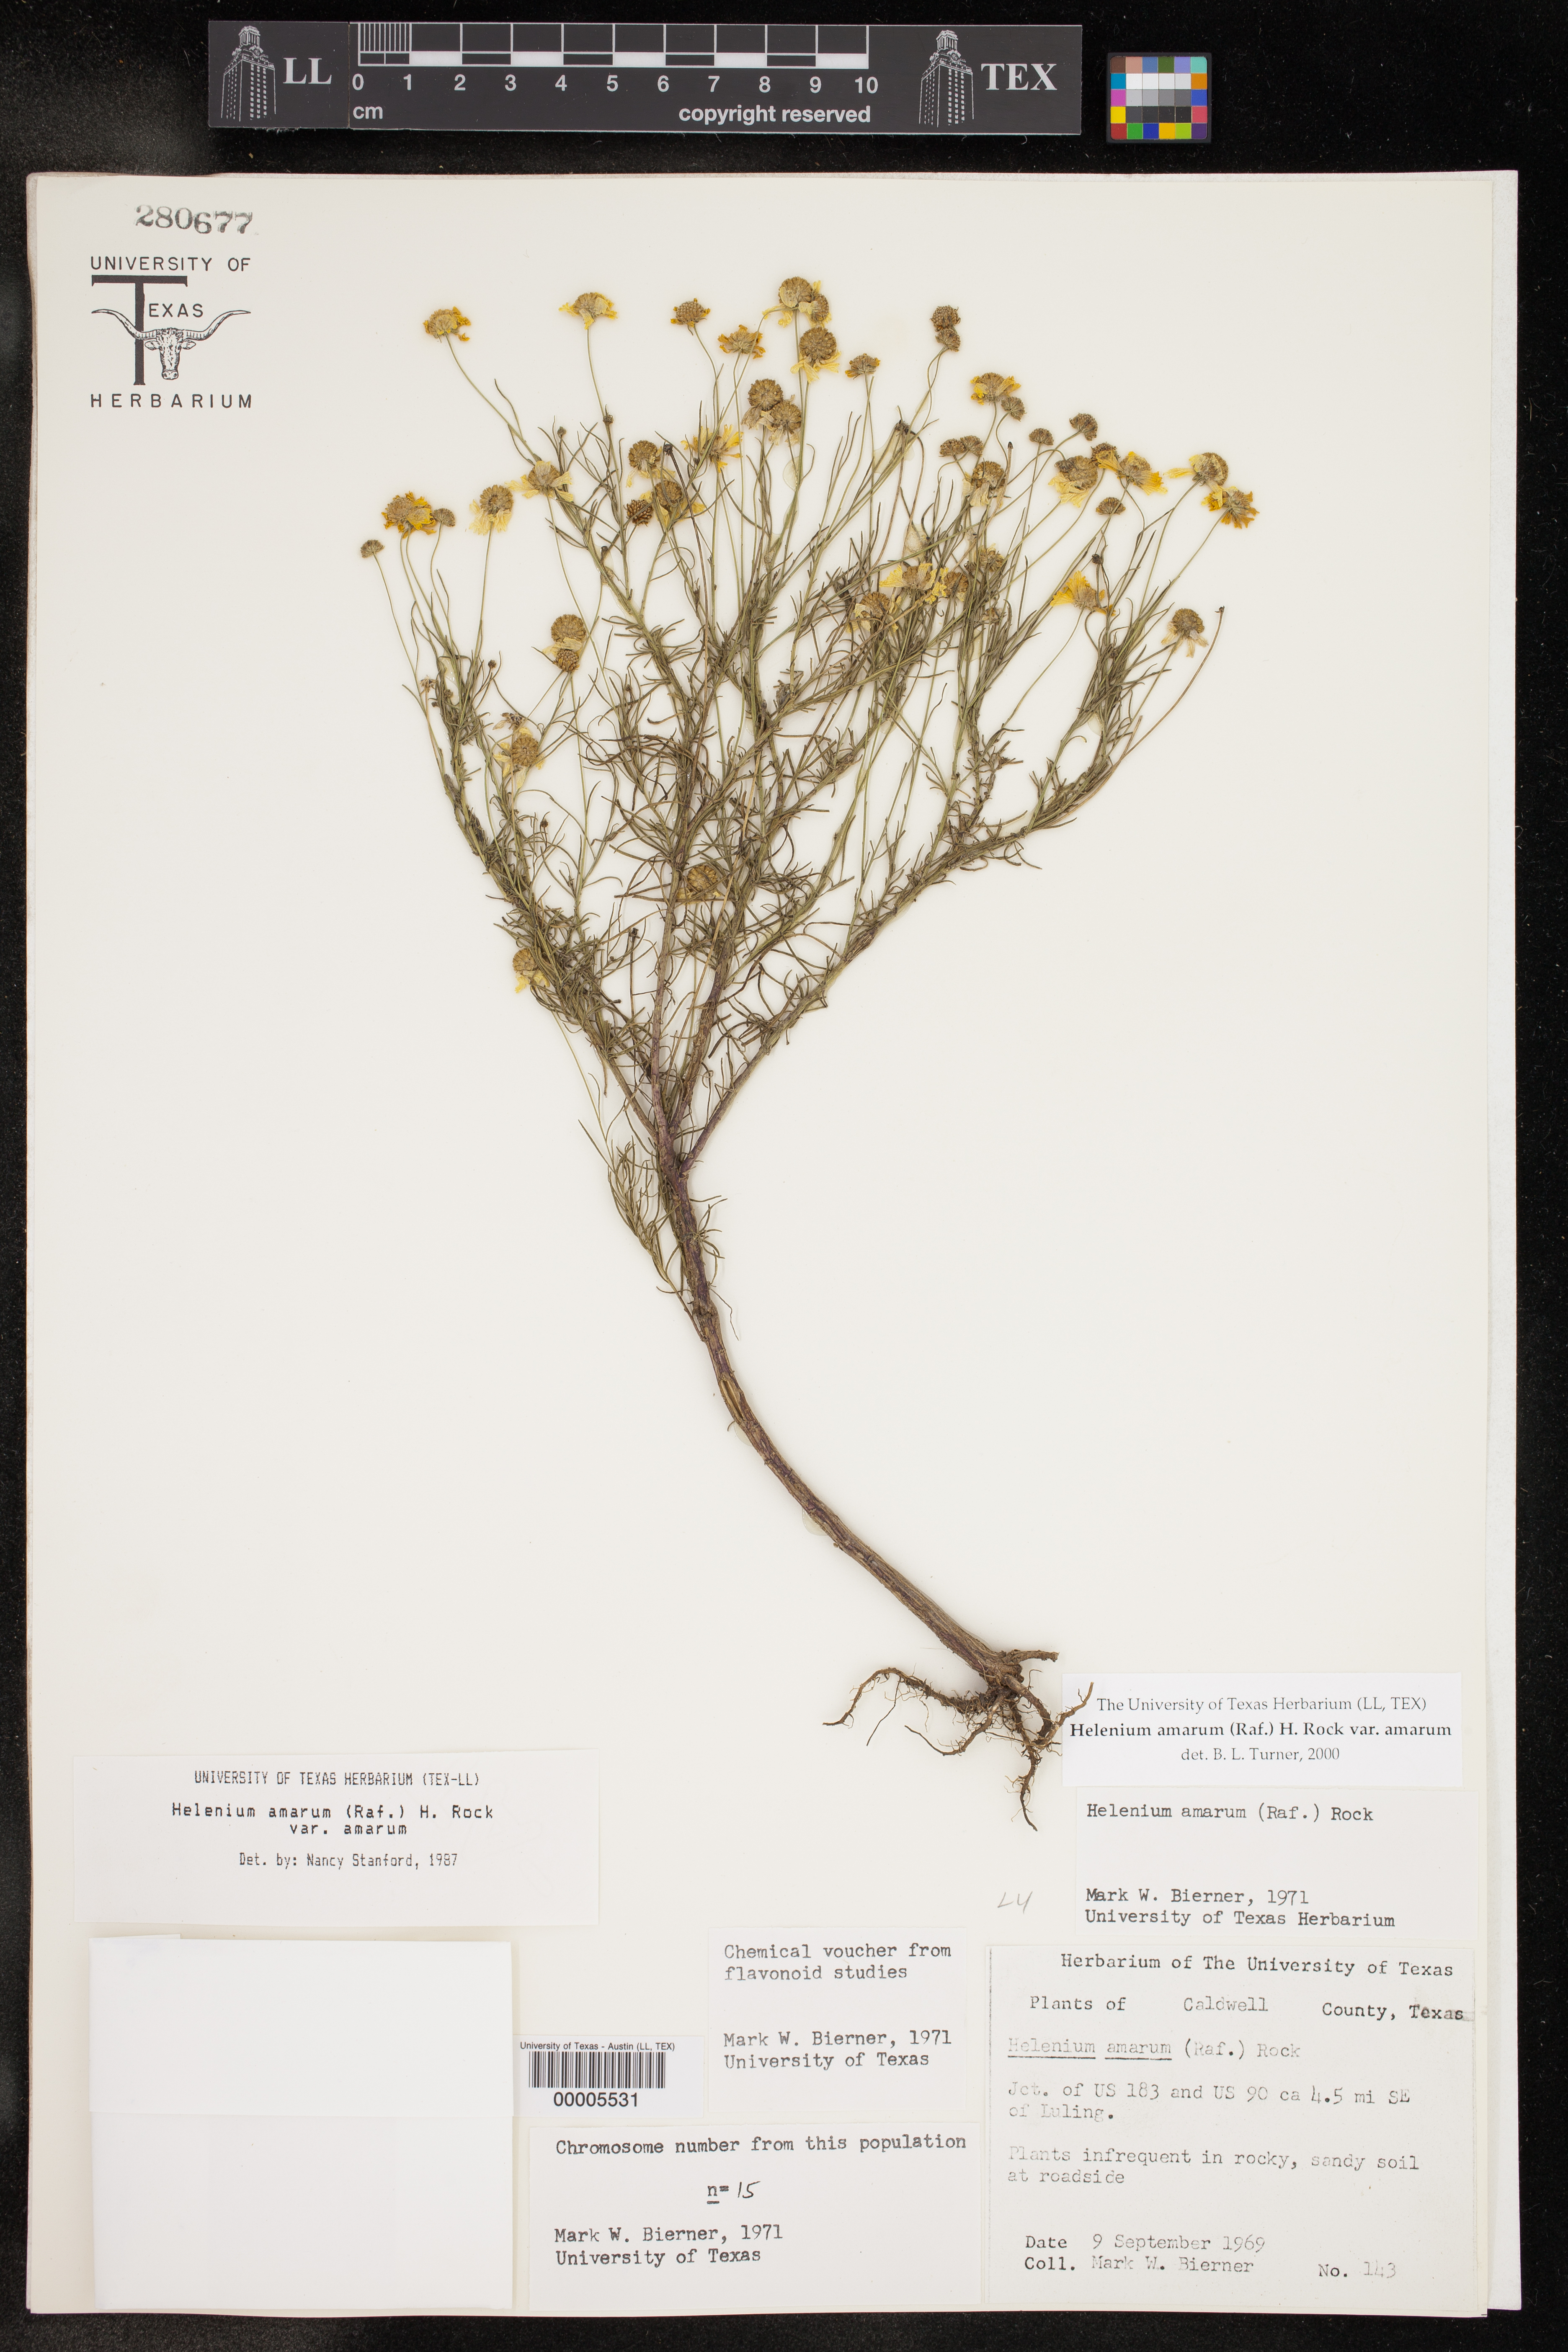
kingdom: Plantae
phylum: Tracheophyta
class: Magnoliopsida
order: Asterales
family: Asteraceae
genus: Helenium
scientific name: Helenium amarum
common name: Bitter sneezeweed
